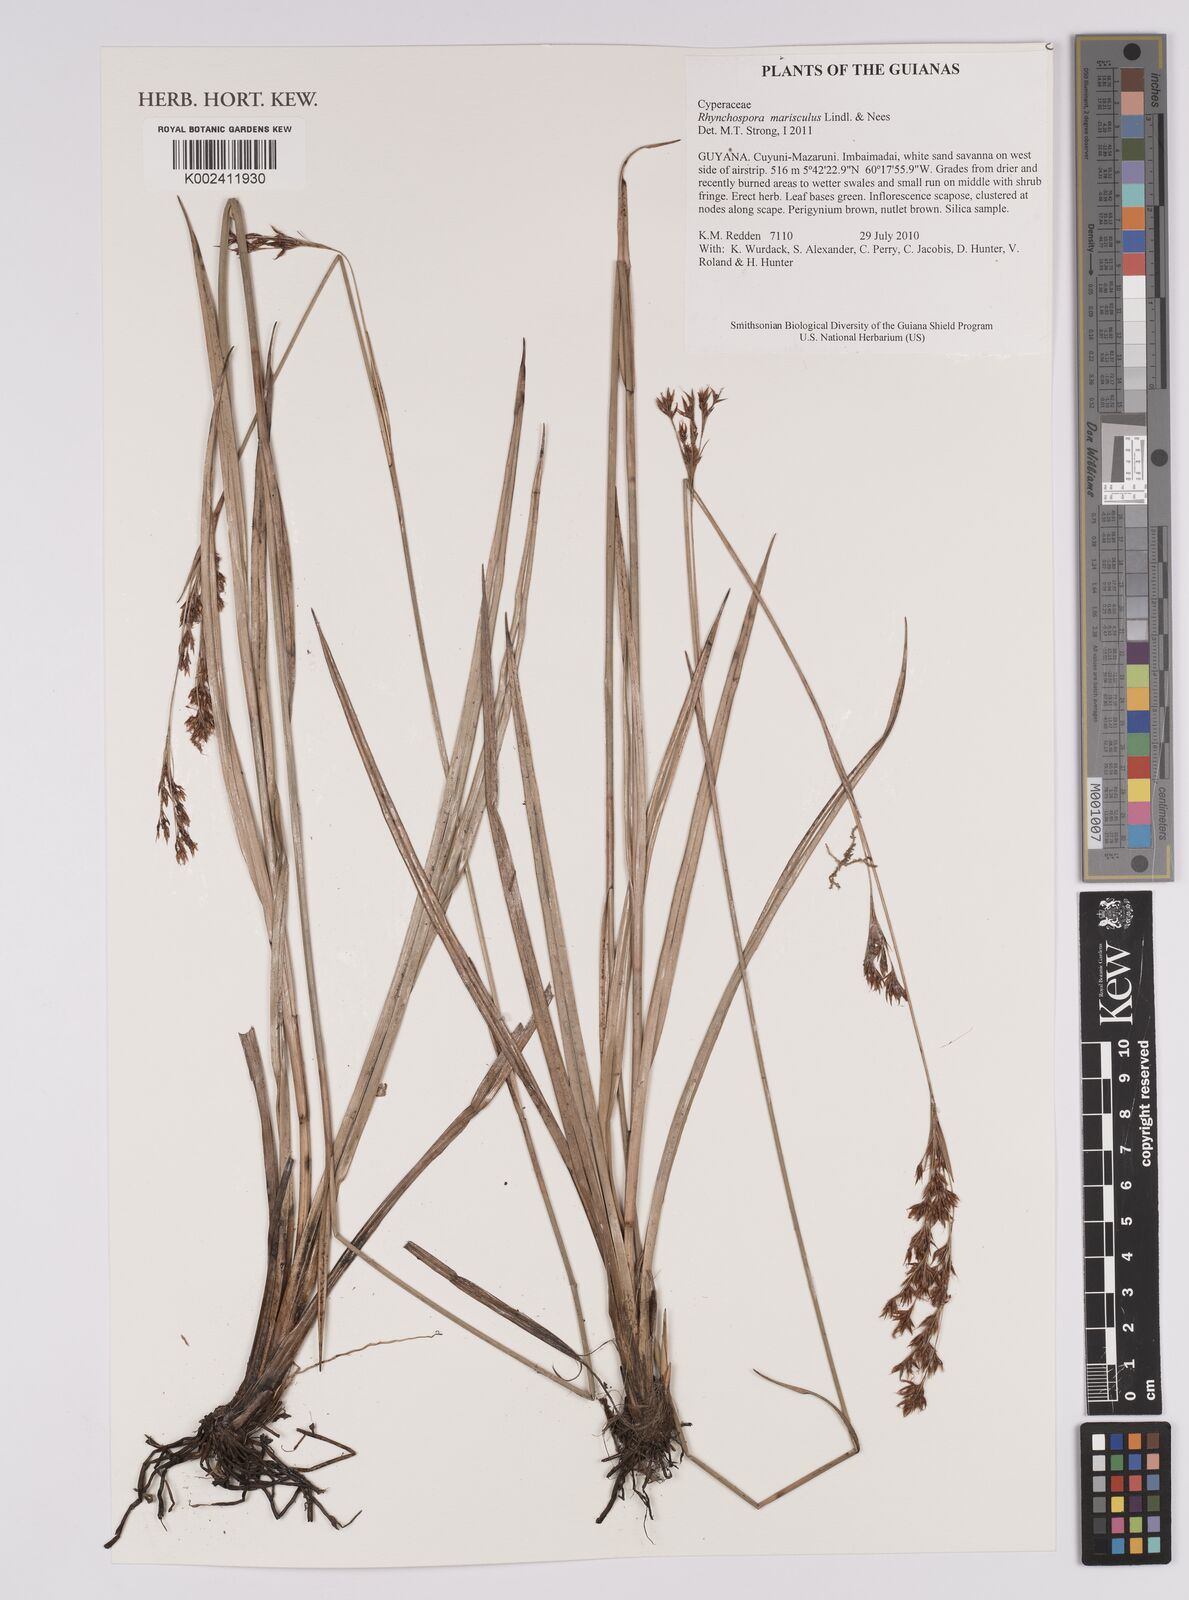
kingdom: Plantae
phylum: Tracheophyta
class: Liliopsida
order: Poales
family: Cyperaceae
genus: Rhynchospora
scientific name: Rhynchospora marisculus
